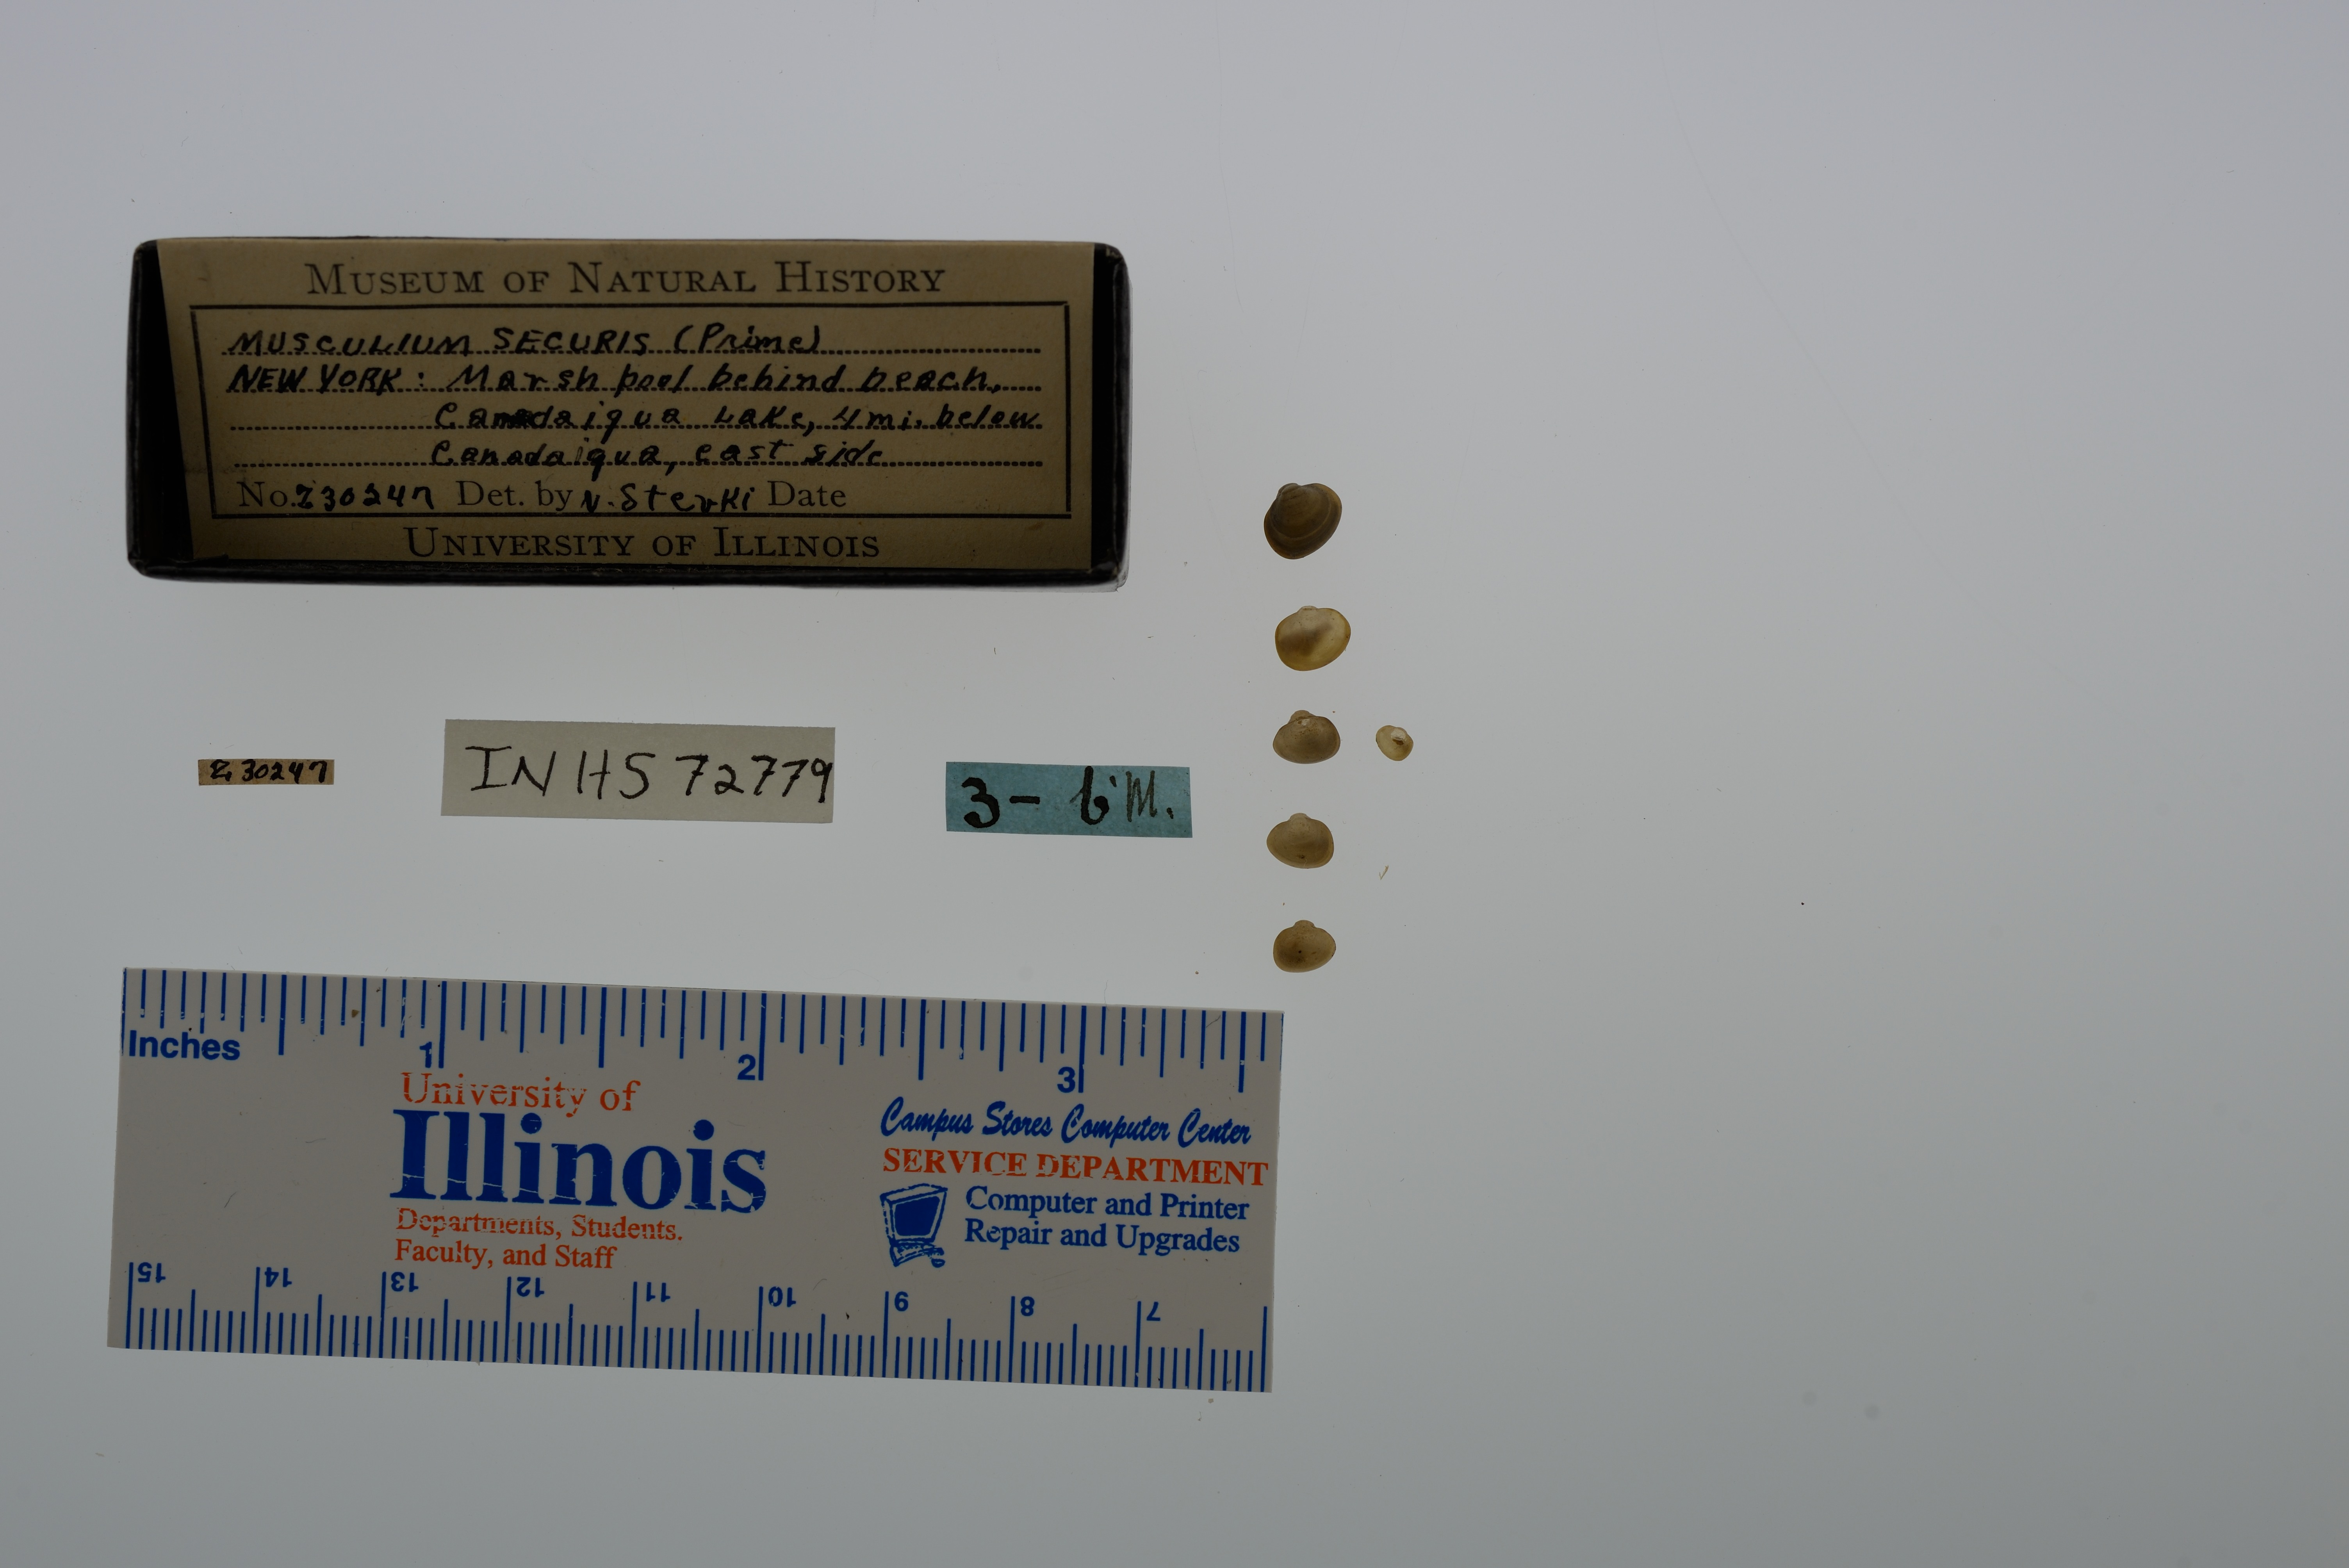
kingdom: Animalia
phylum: Mollusca
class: Bivalvia
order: Sphaeriida
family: Sphaeriidae
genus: Musculium
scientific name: Musculium securis
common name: Pond fingerclam
